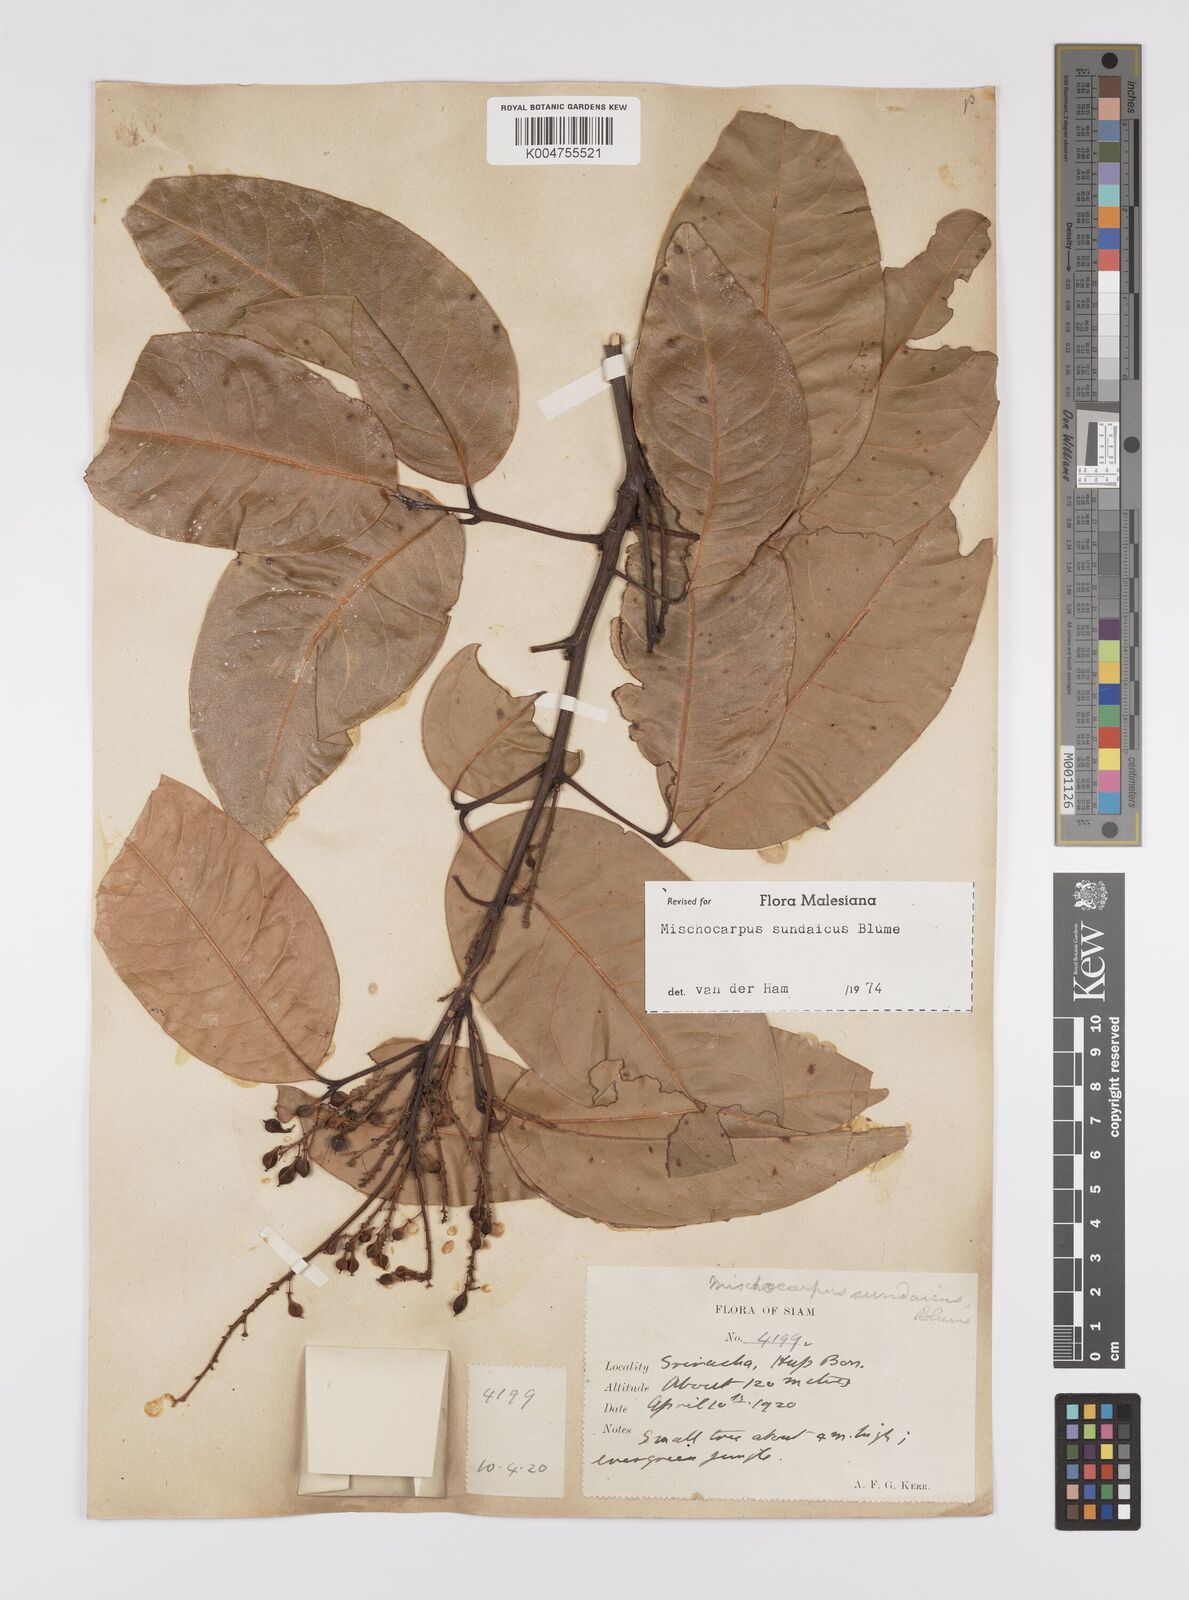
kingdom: Plantae
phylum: Tracheophyta
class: Magnoliopsida
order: Sapindales
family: Sapindaceae
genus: Mischocarpus
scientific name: Mischocarpus sundaicus
